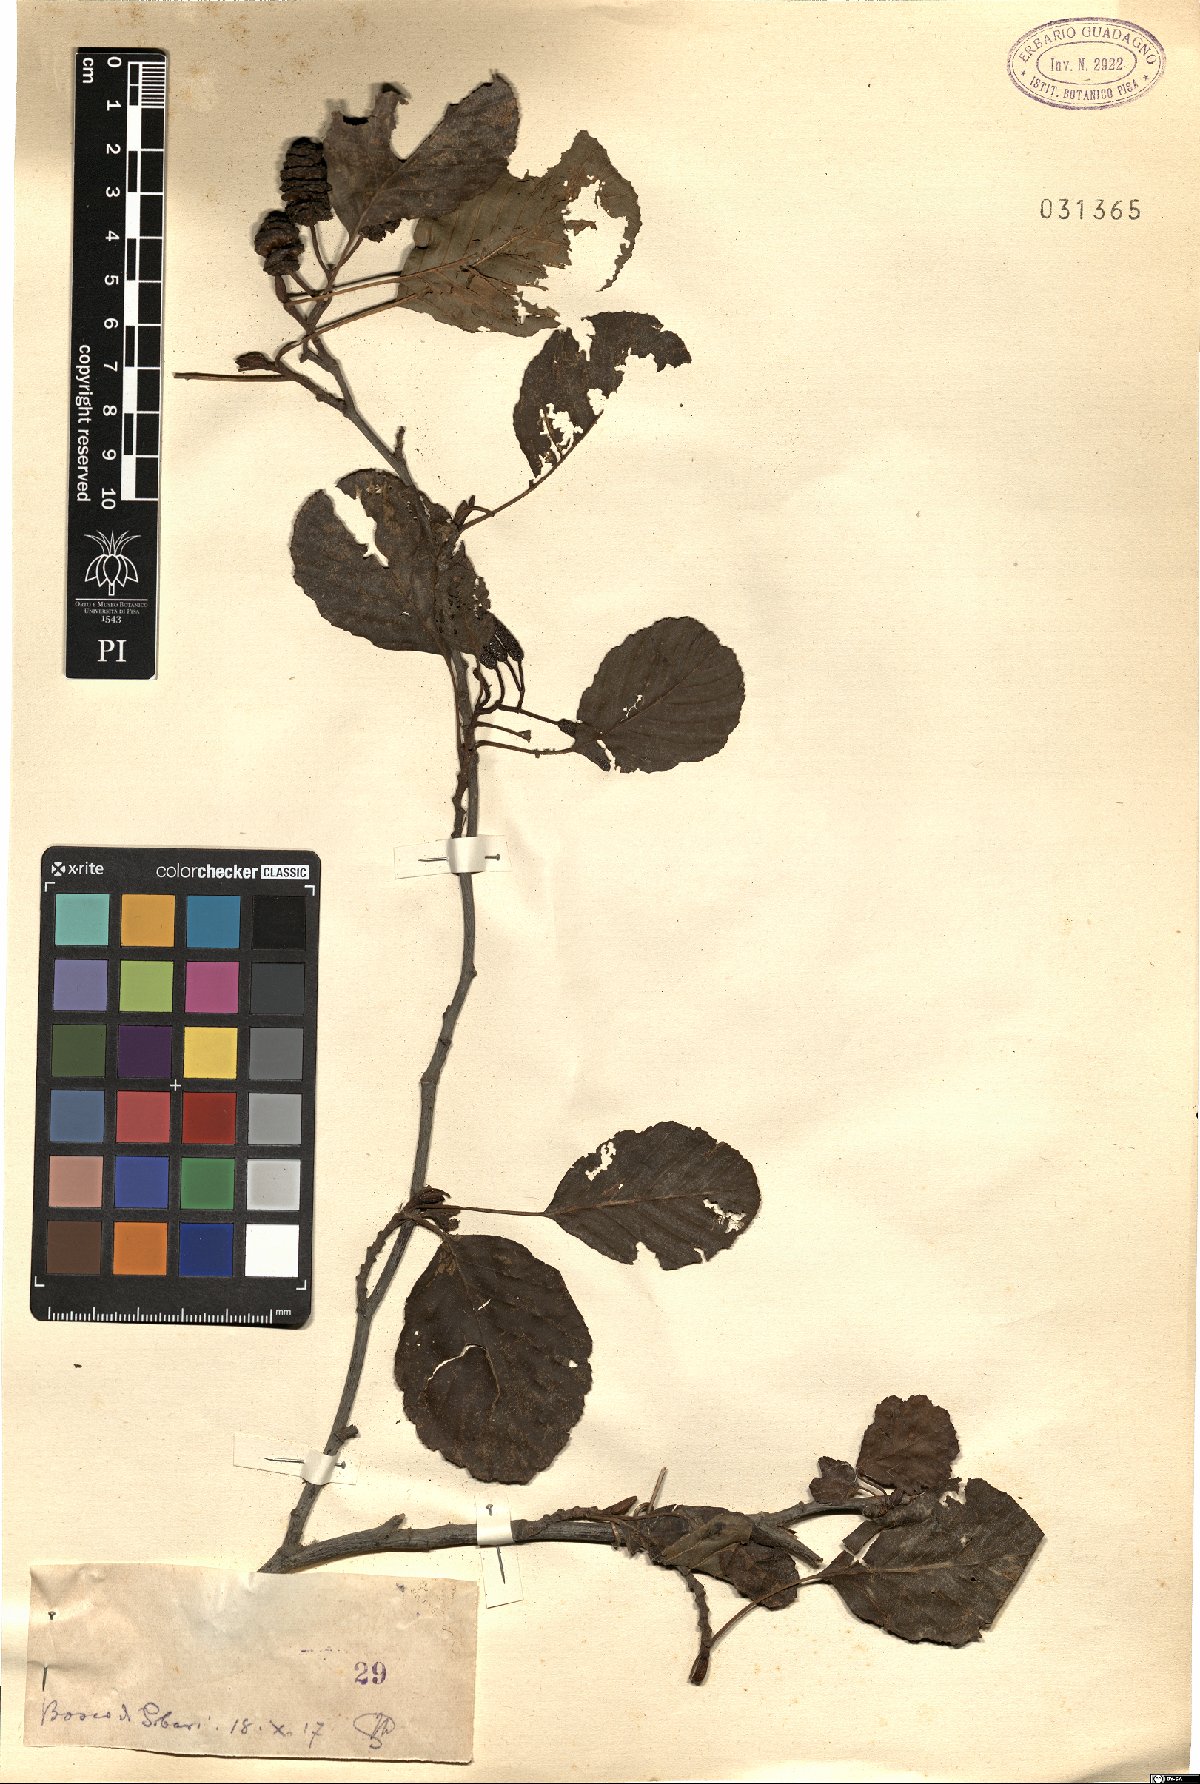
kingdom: Plantae
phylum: Tracheophyta
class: Magnoliopsida
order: Fagales
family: Betulaceae
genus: Alnus
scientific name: Alnus
